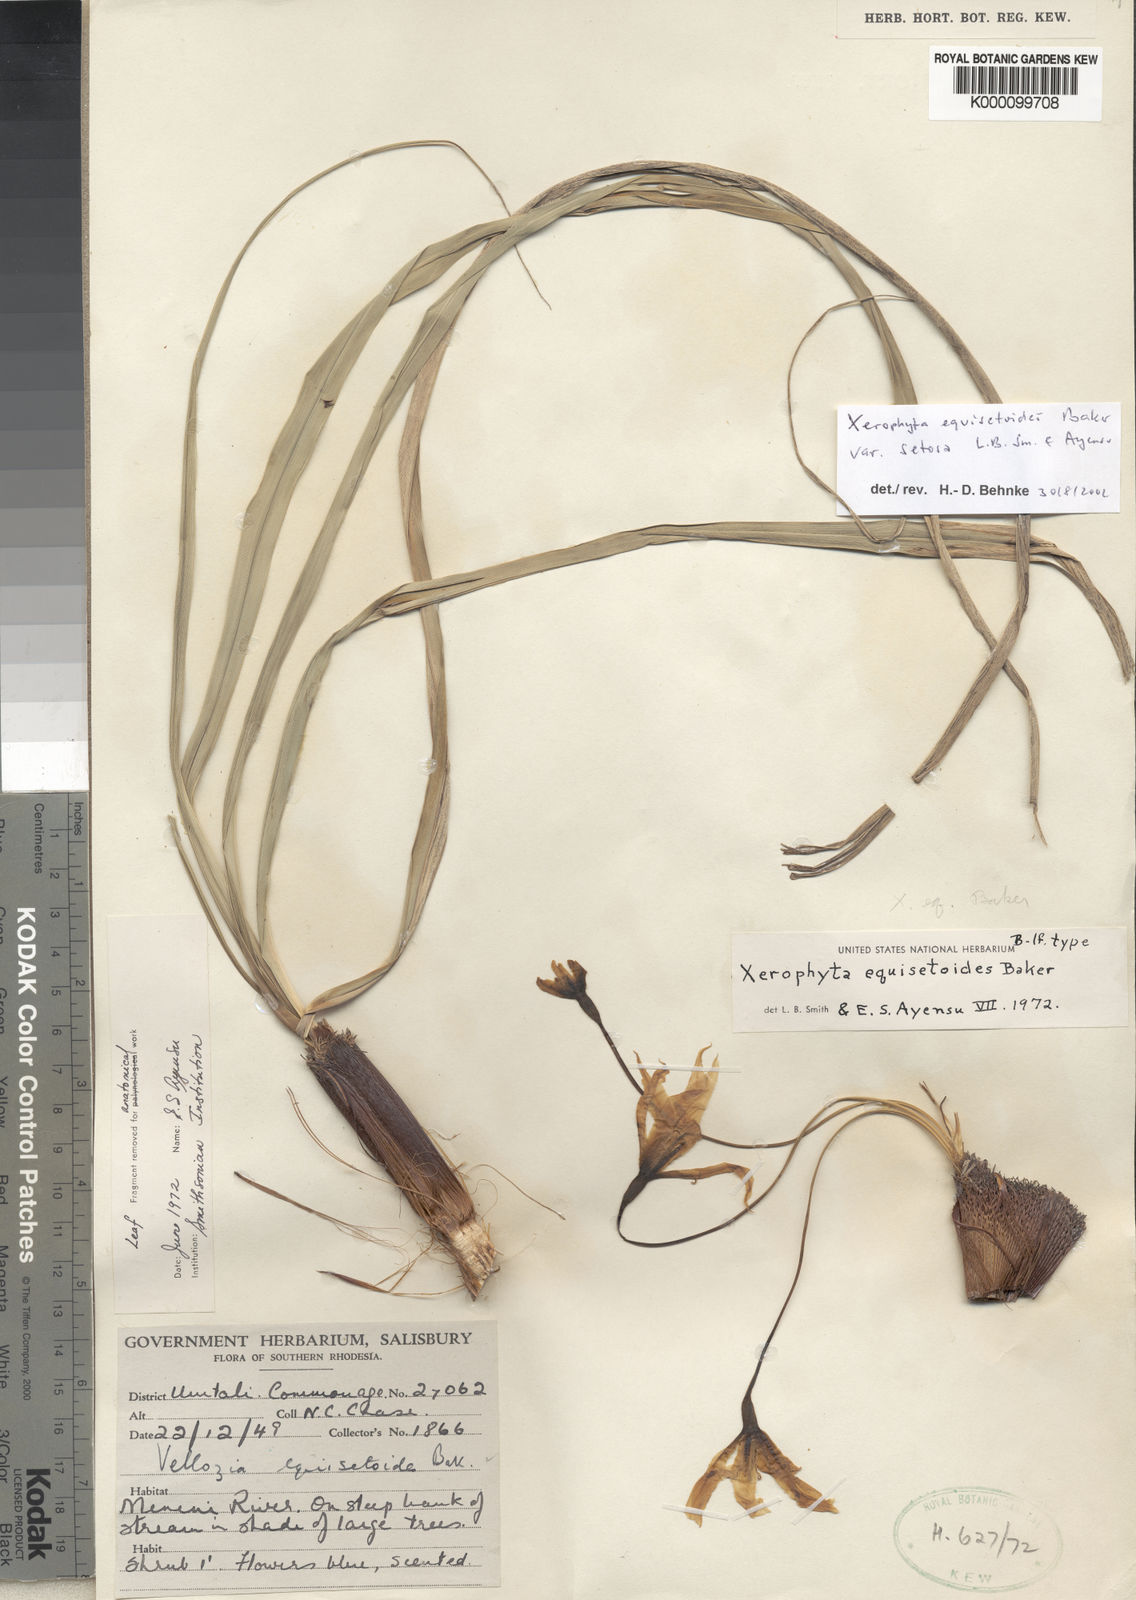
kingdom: Plantae
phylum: Tracheophyta
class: Liliopsida
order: Pandanales
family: Velloziaceae
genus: Xerophyta
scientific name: Xerophyta equisetoides
